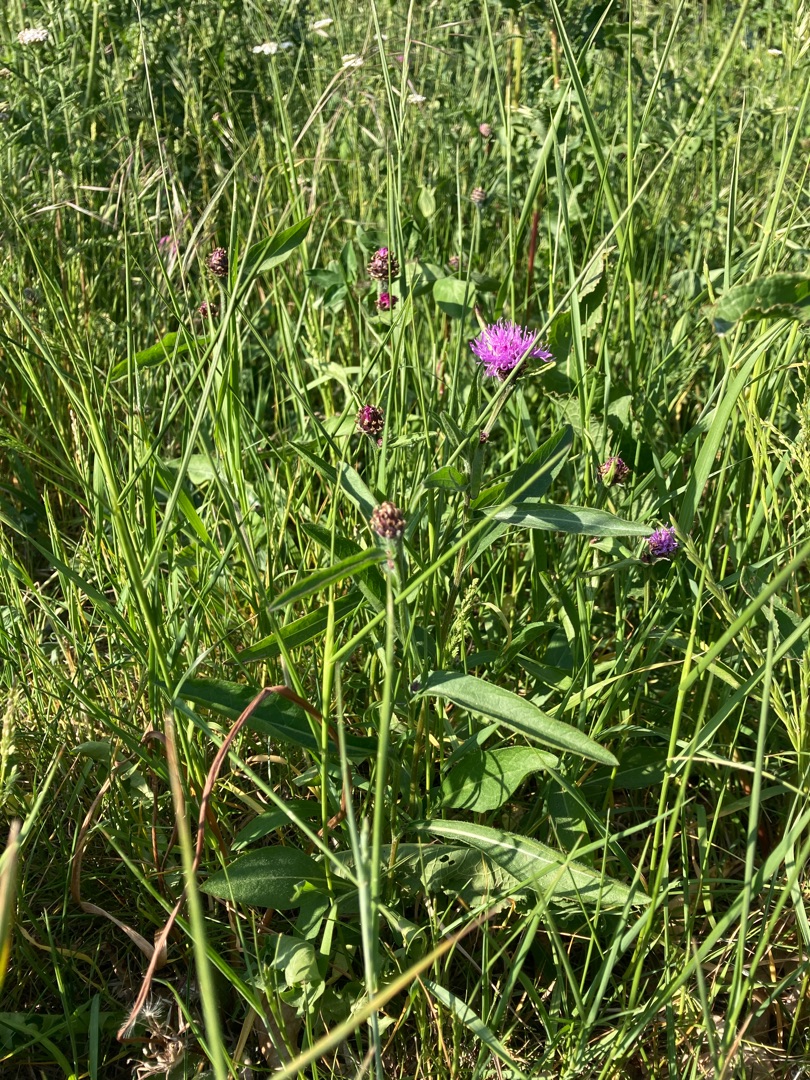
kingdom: Plantae
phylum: Tracheophyta
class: Magnoliopsida
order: Asterales
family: Asteraceae
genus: Centaurea
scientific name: Centaurea jacea
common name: Almindelig knopurt
